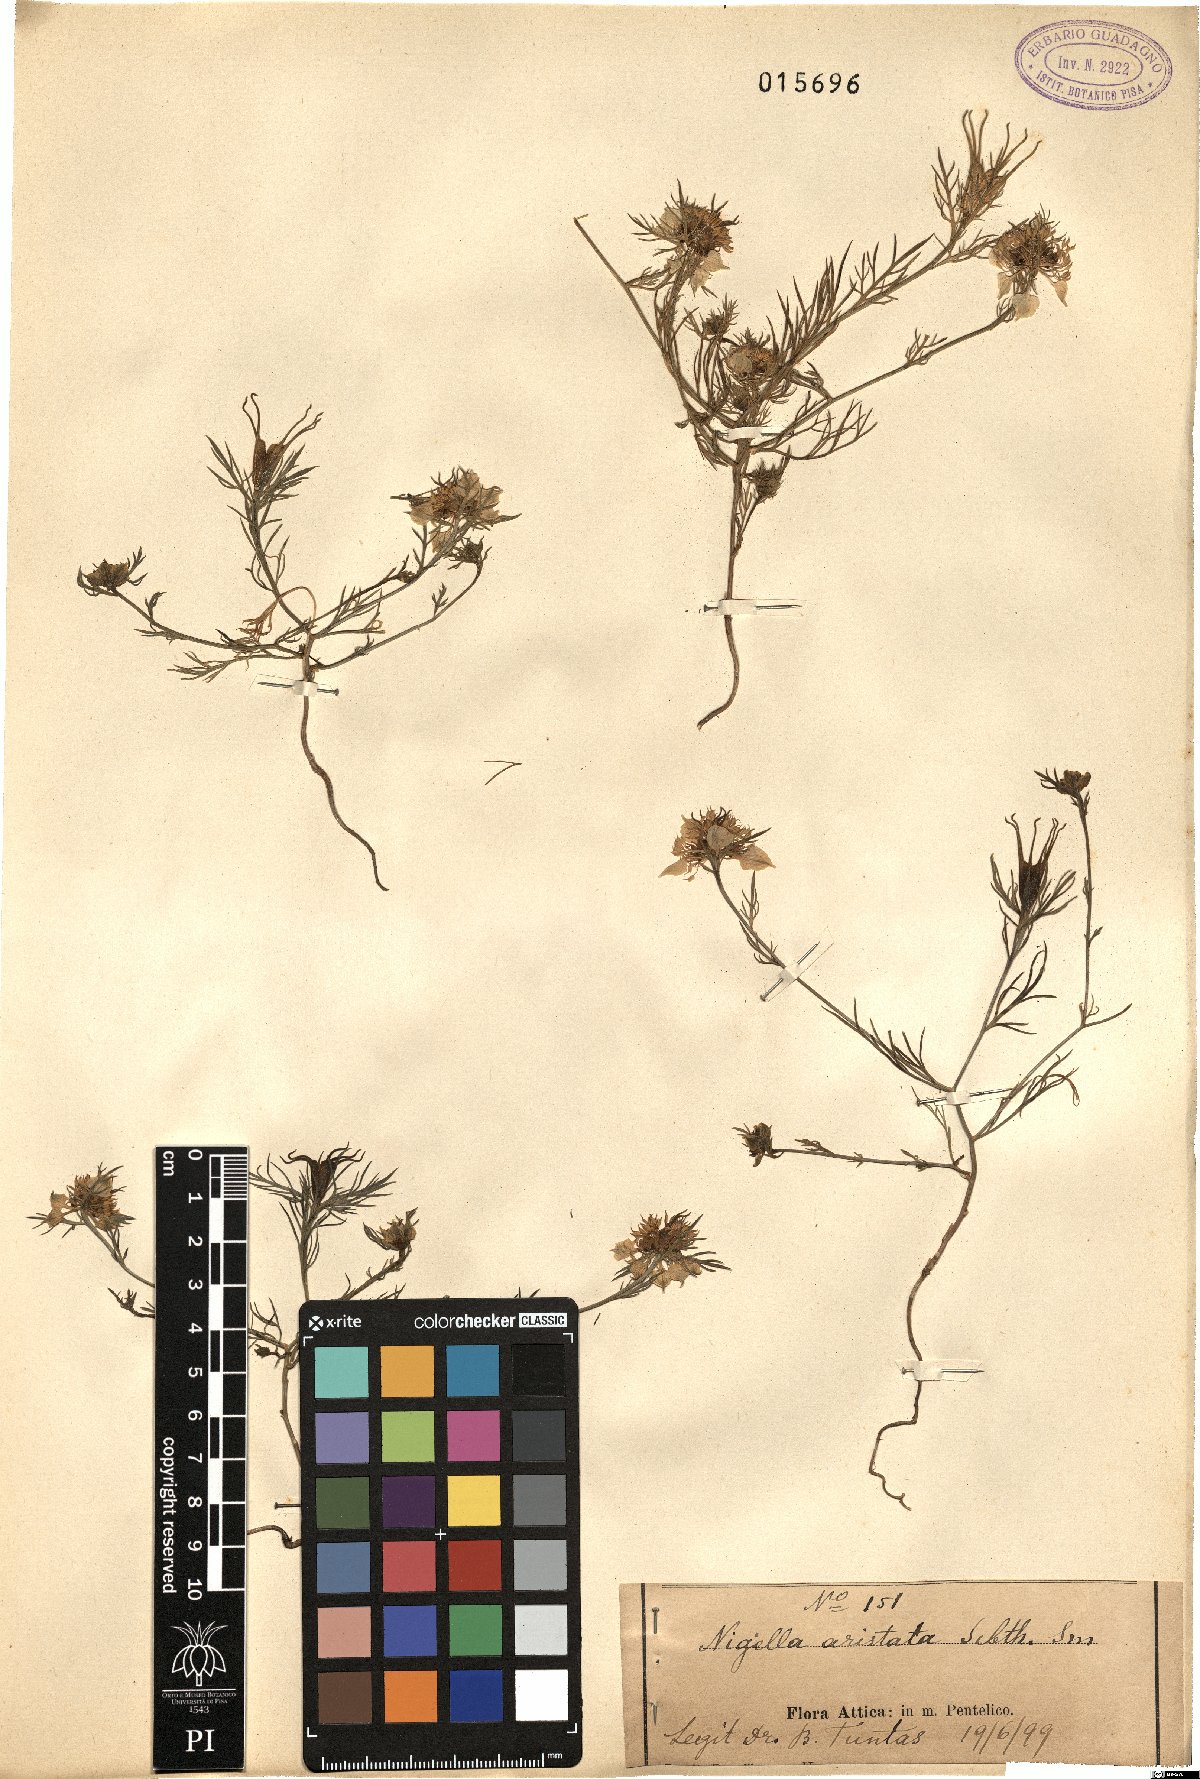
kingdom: Plantae
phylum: Tracheophyta
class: Magnoliopsida
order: Ranunculales
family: Ranunculaceae
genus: Nigella
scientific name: Nigella arvensis
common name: Wild fennel-flower
